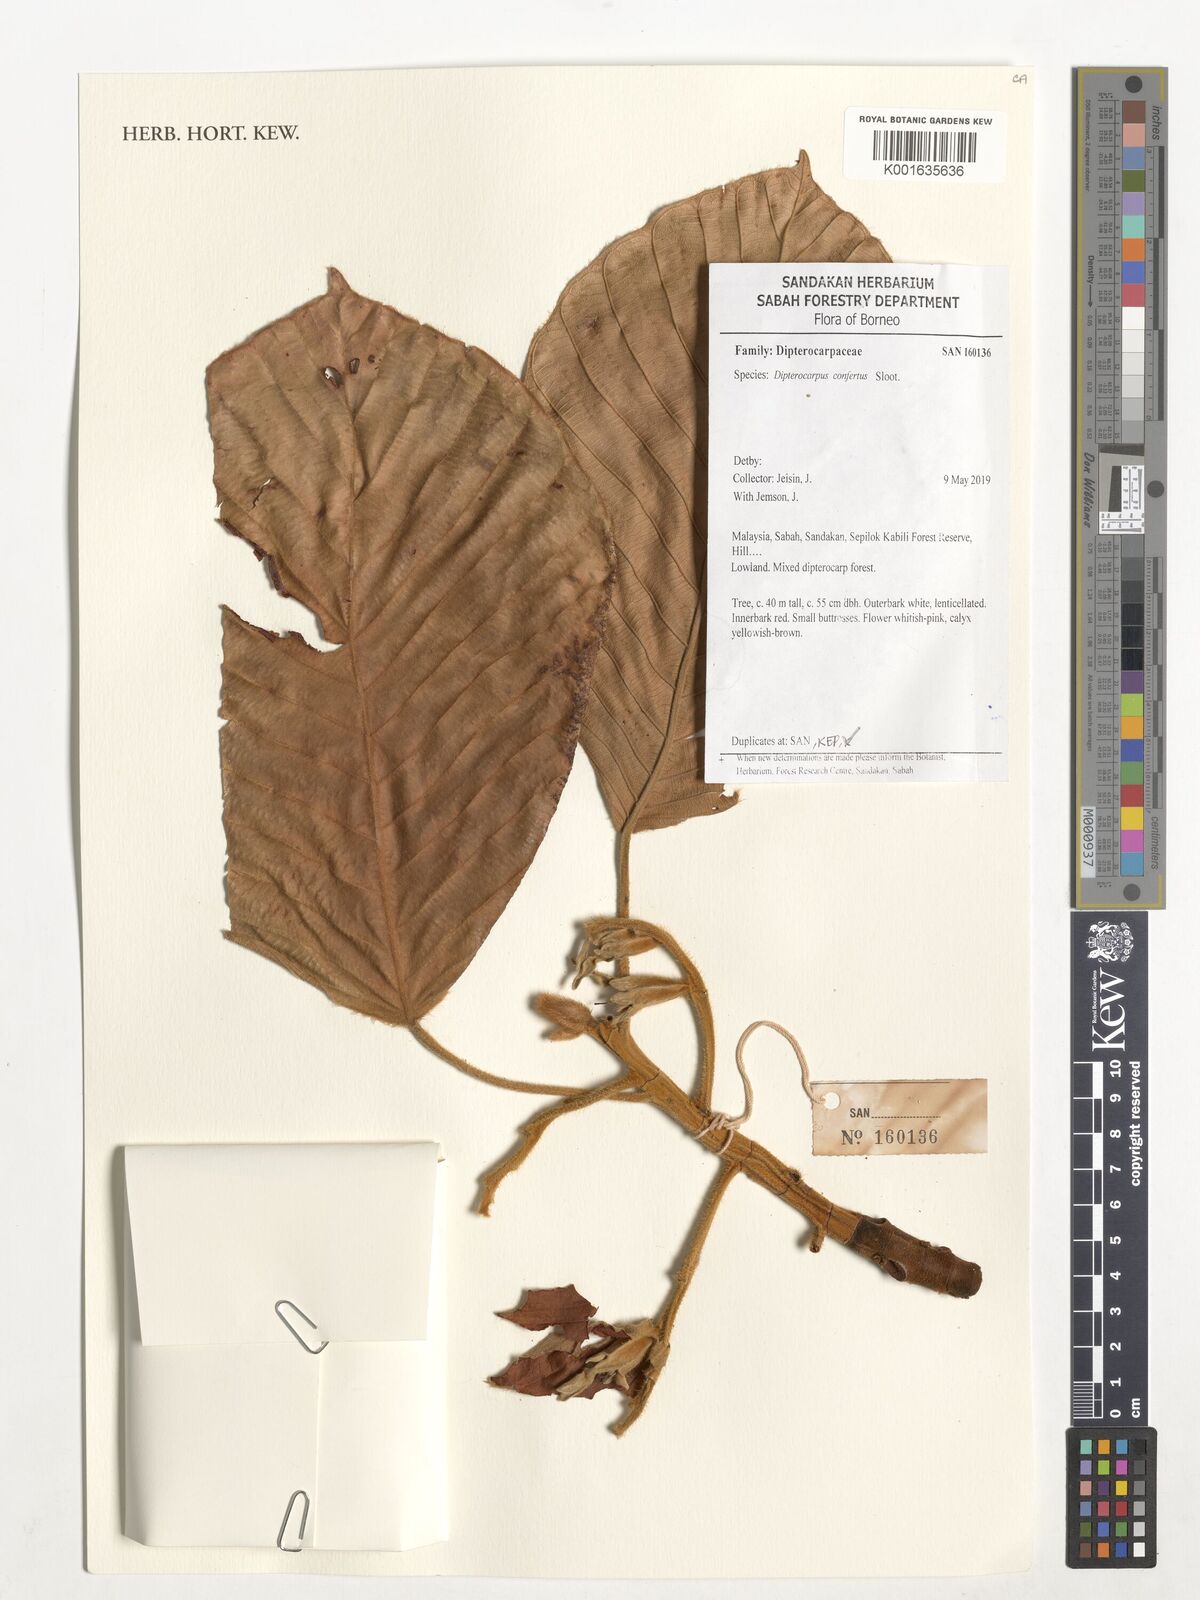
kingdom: Plantae
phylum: Tracheophyta
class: Magnoliopsida
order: Malvales
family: Dipterocarpaceae
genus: Dipterocarpus
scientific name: Dipterocarpus confertus
